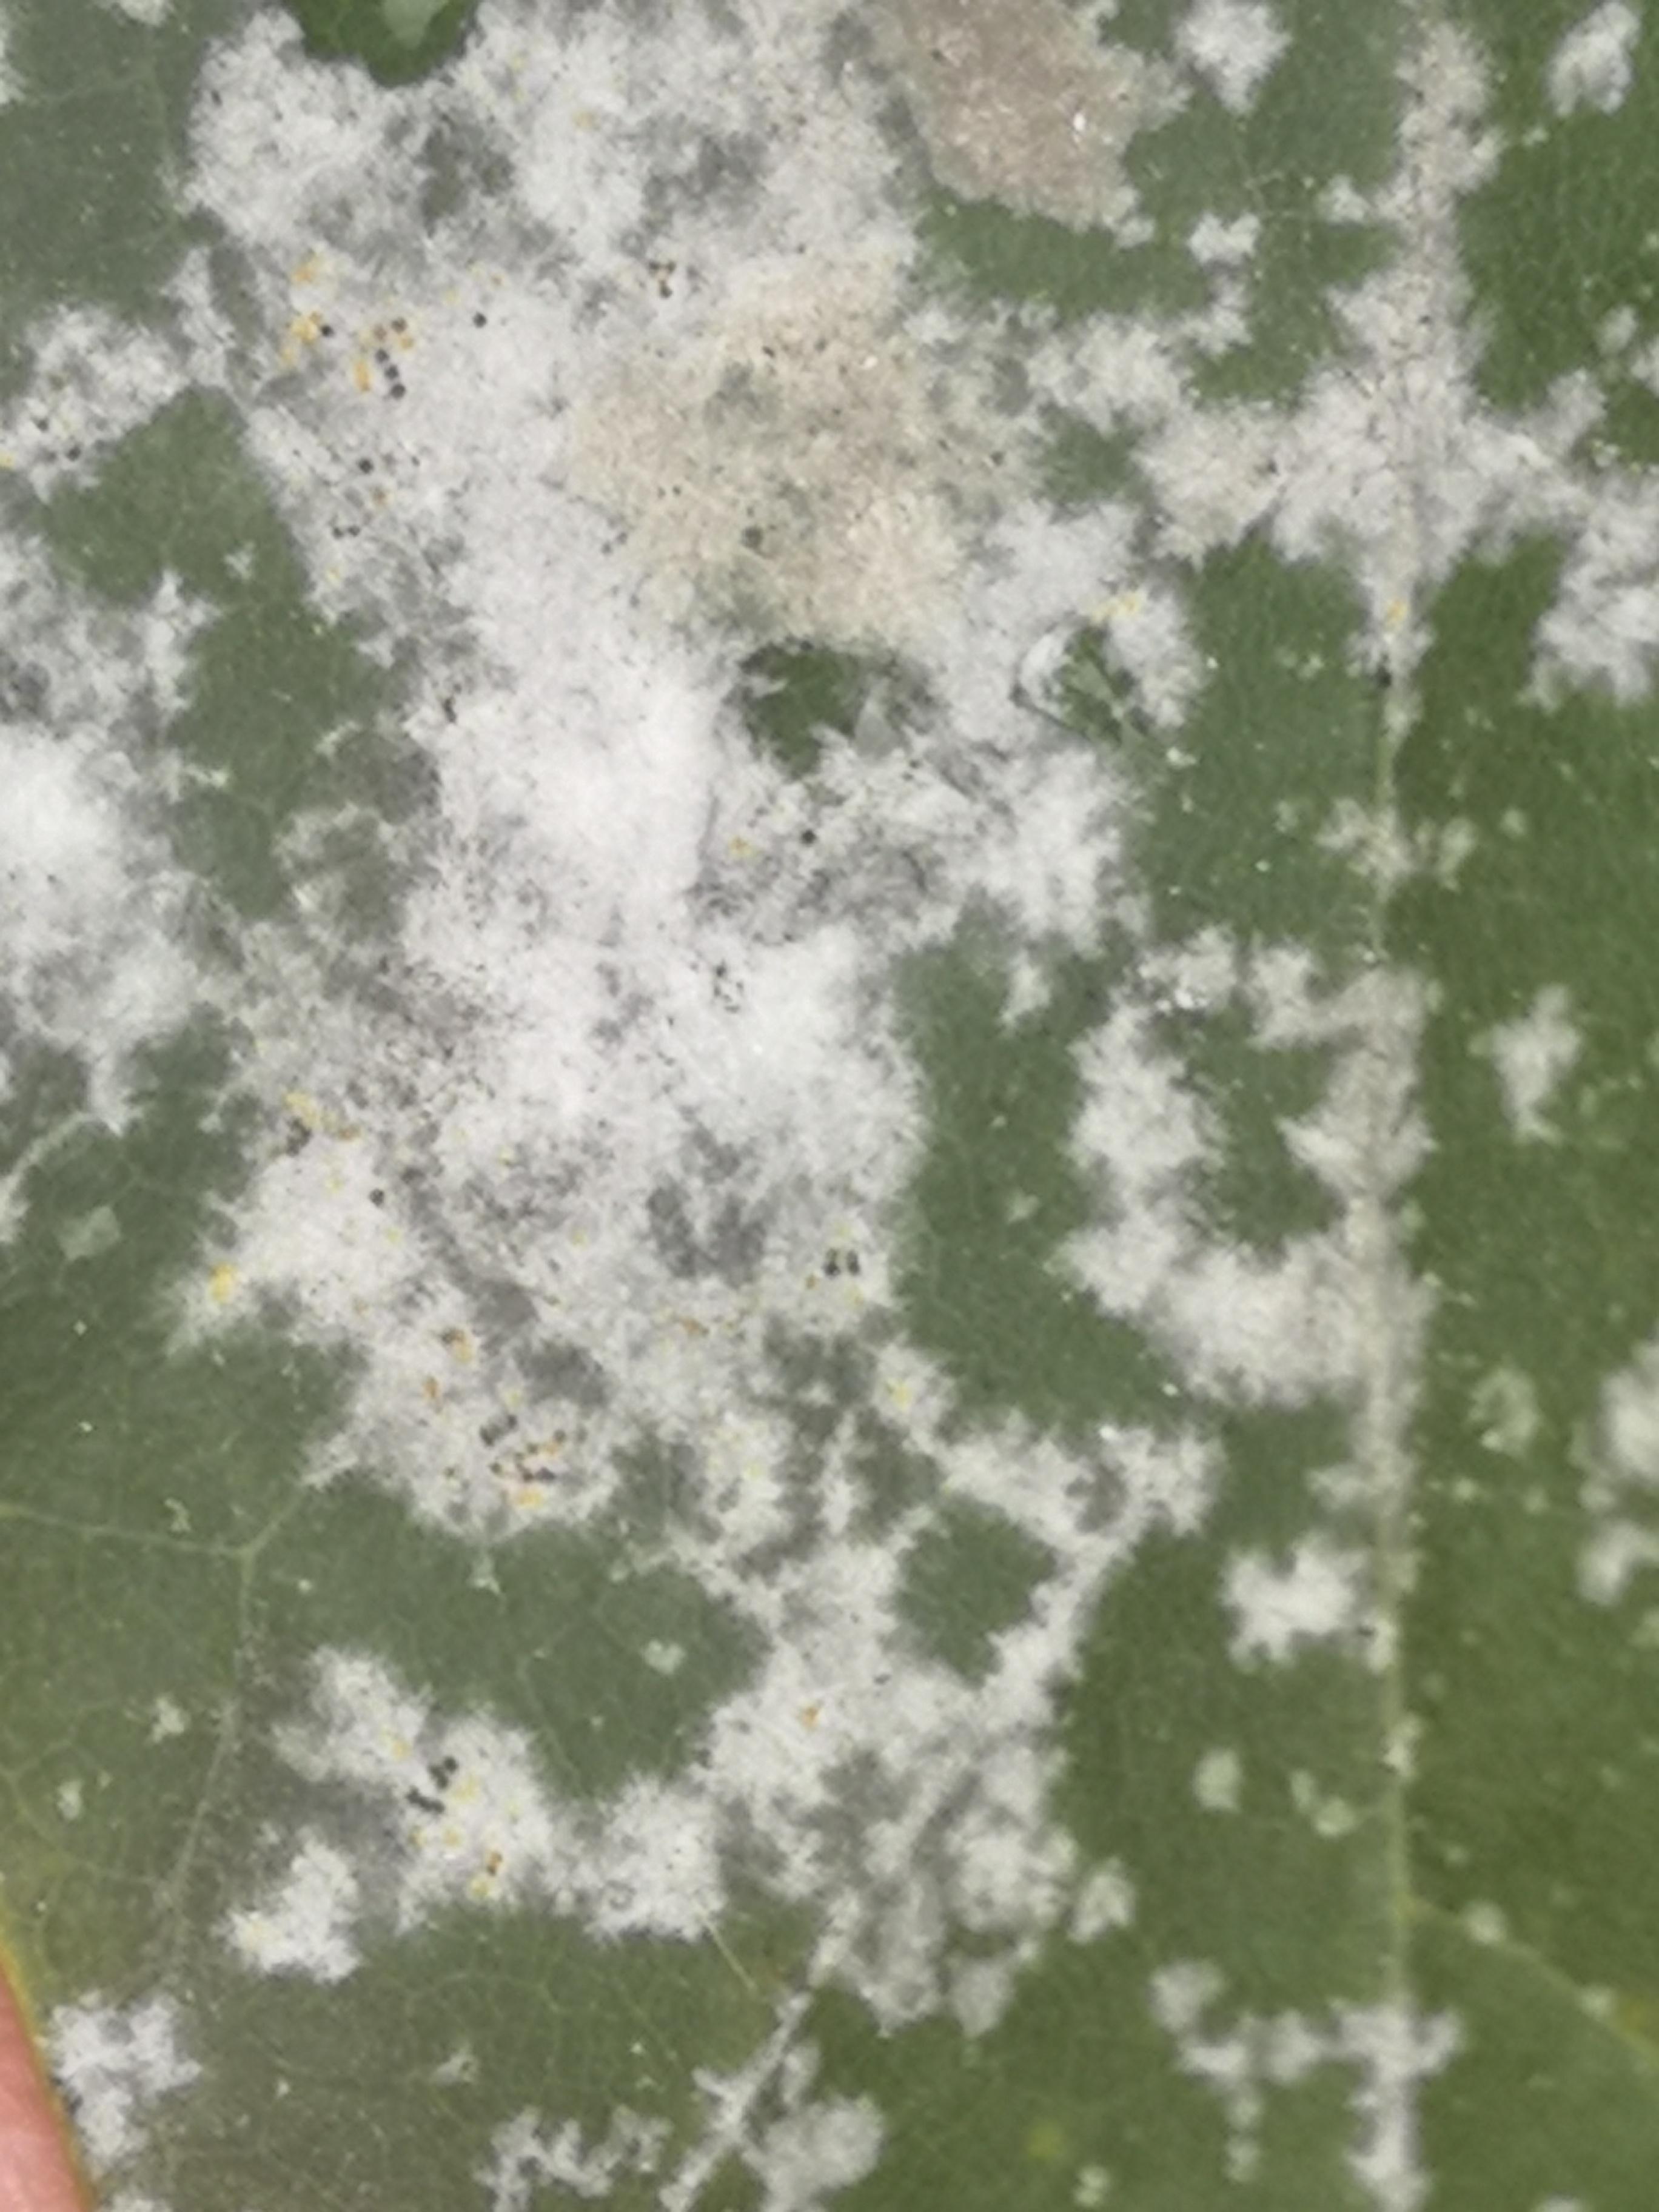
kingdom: Fungi
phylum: Ascomycota
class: Leotiomycetes
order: Helotiales
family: Erysiphaceae
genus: Sawadaea
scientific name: Sawadaea tulasnei
